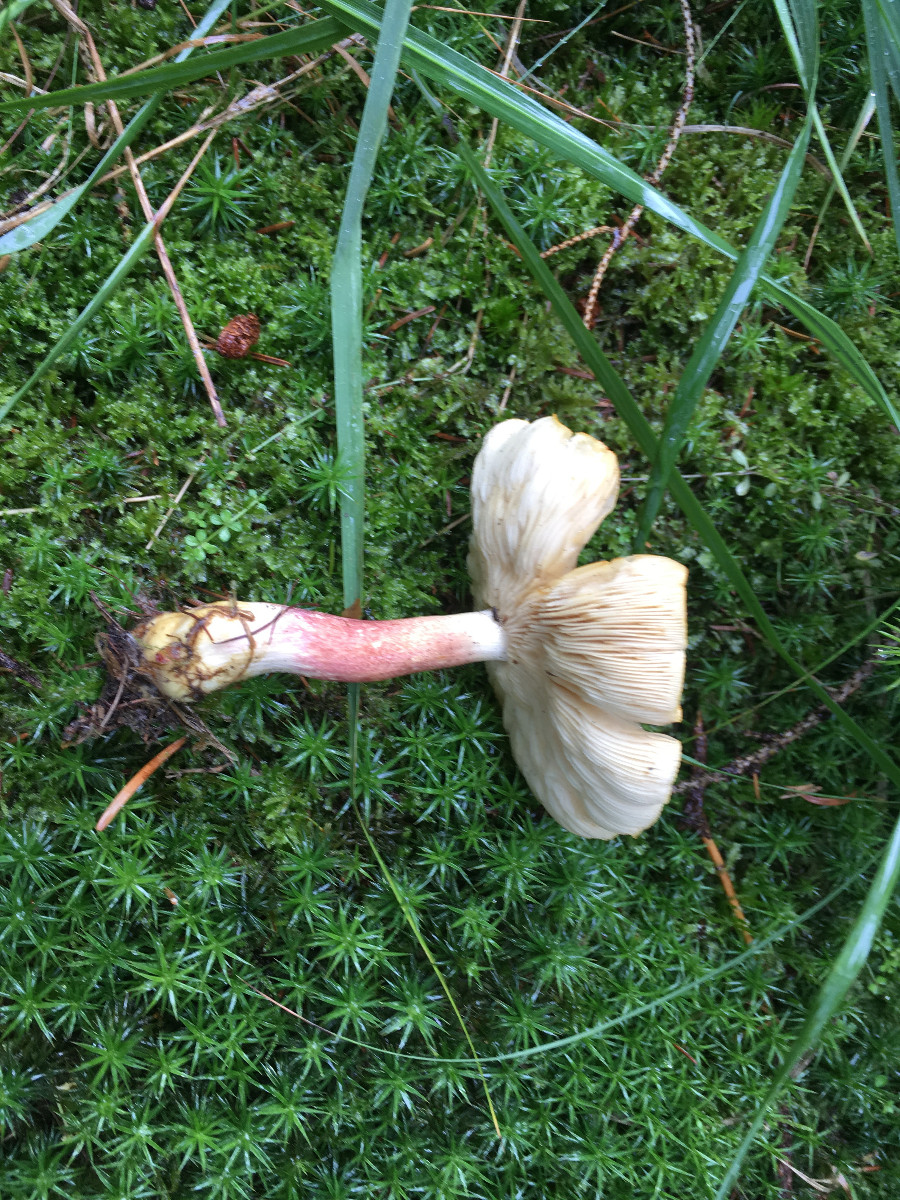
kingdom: Fungi
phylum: Basidiomycota
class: Agaricomycetes
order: Agaricales
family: Tricholomataceae
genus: Tricholomopsis
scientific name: Tricholomopsis rutilans
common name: purpur-væbnerhat
